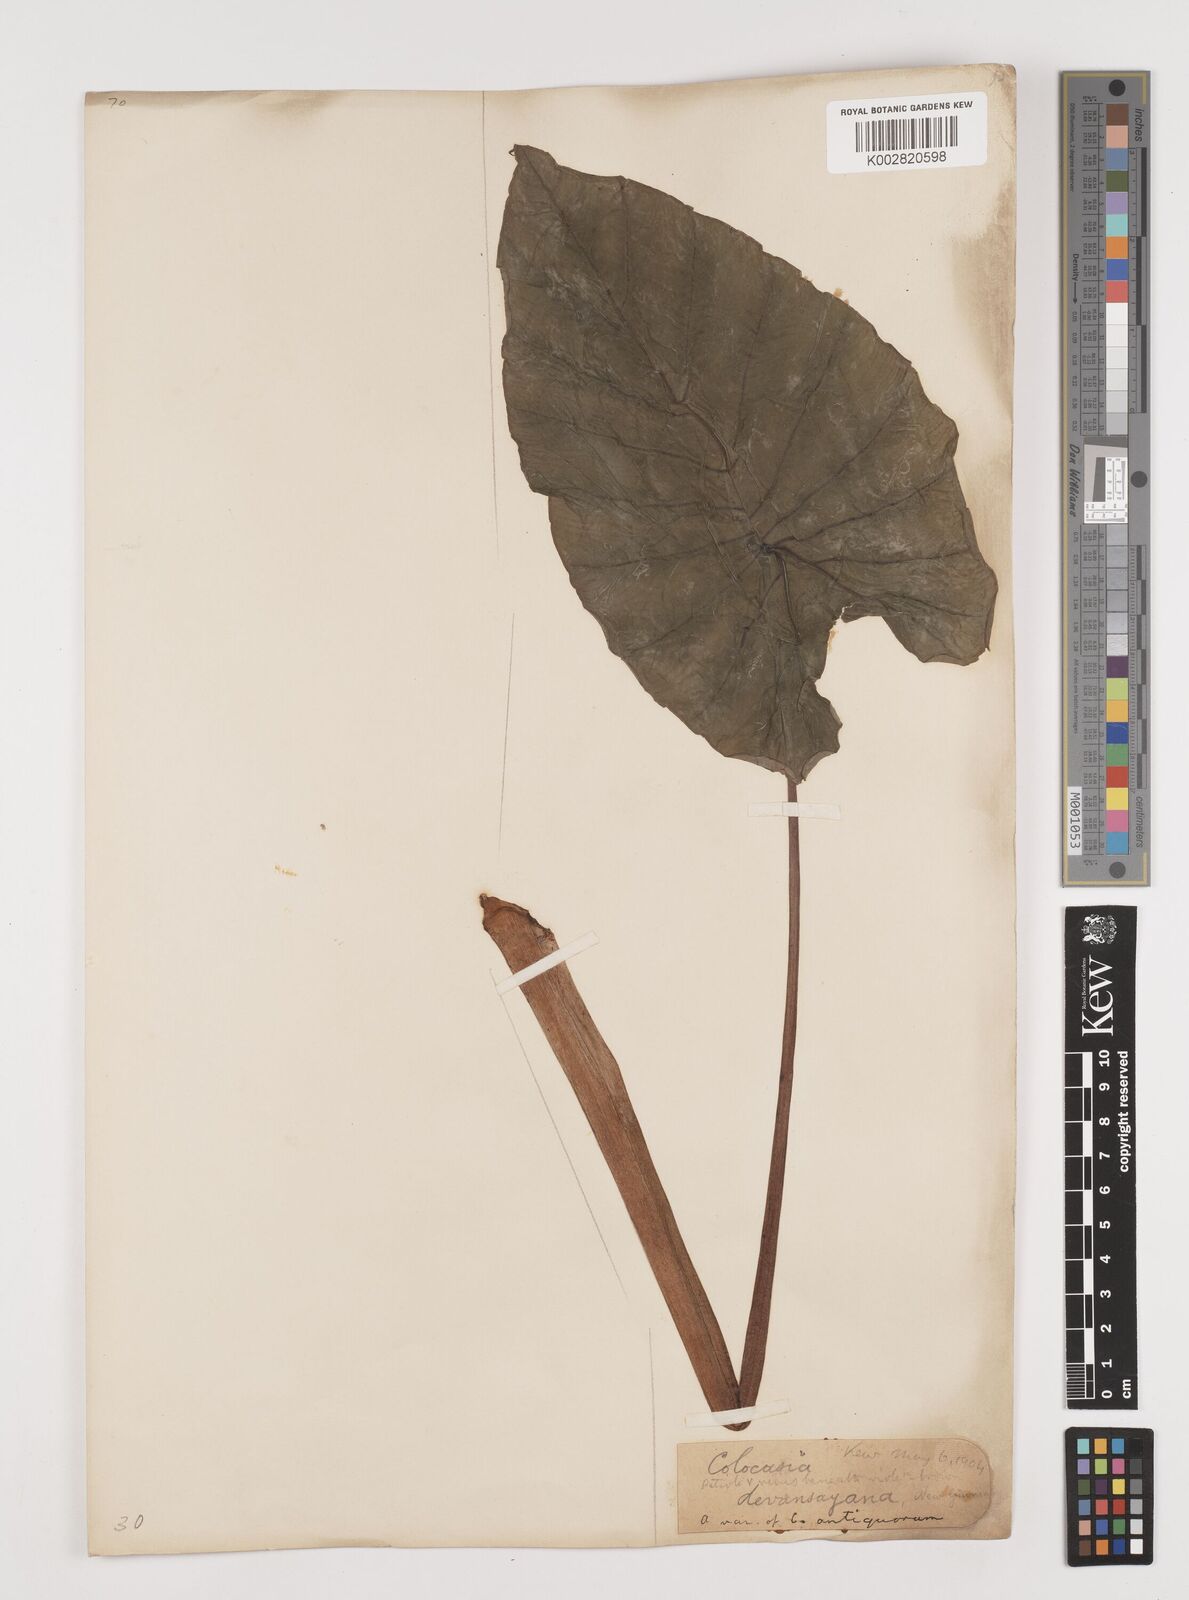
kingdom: Plantae
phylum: Tracheophyta
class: Liliopsida
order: Alismatales
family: Araceae
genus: Colocasia
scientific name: Colocasia esculenta
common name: Taro
